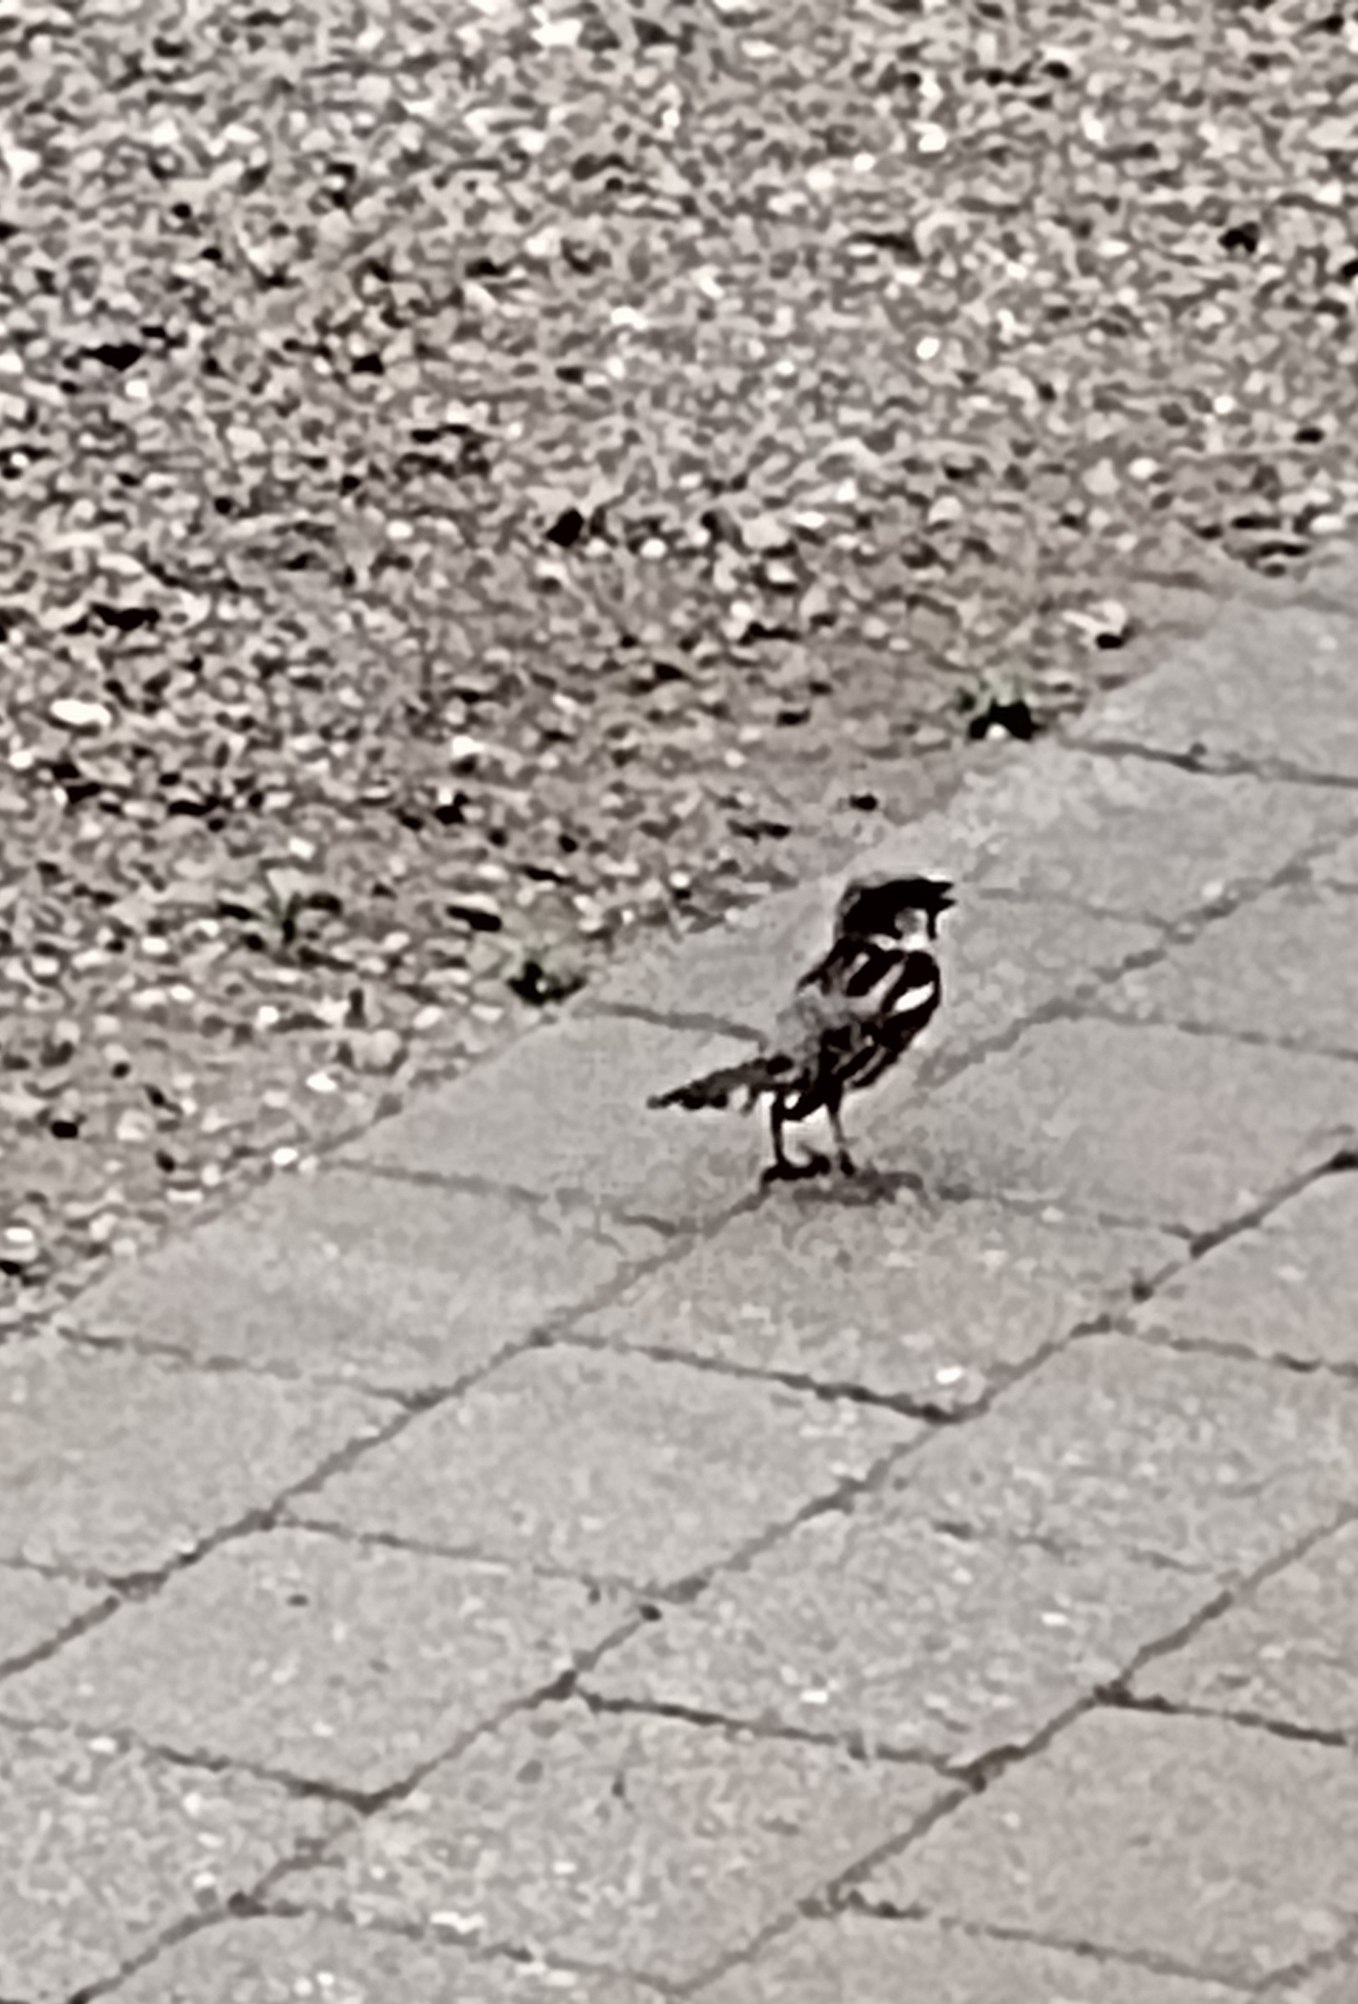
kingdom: Animalia
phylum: Chordata
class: Aves
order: Passeriformes
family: Passeridae
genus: Passer
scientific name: Passer domesticus
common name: Gråspurv
